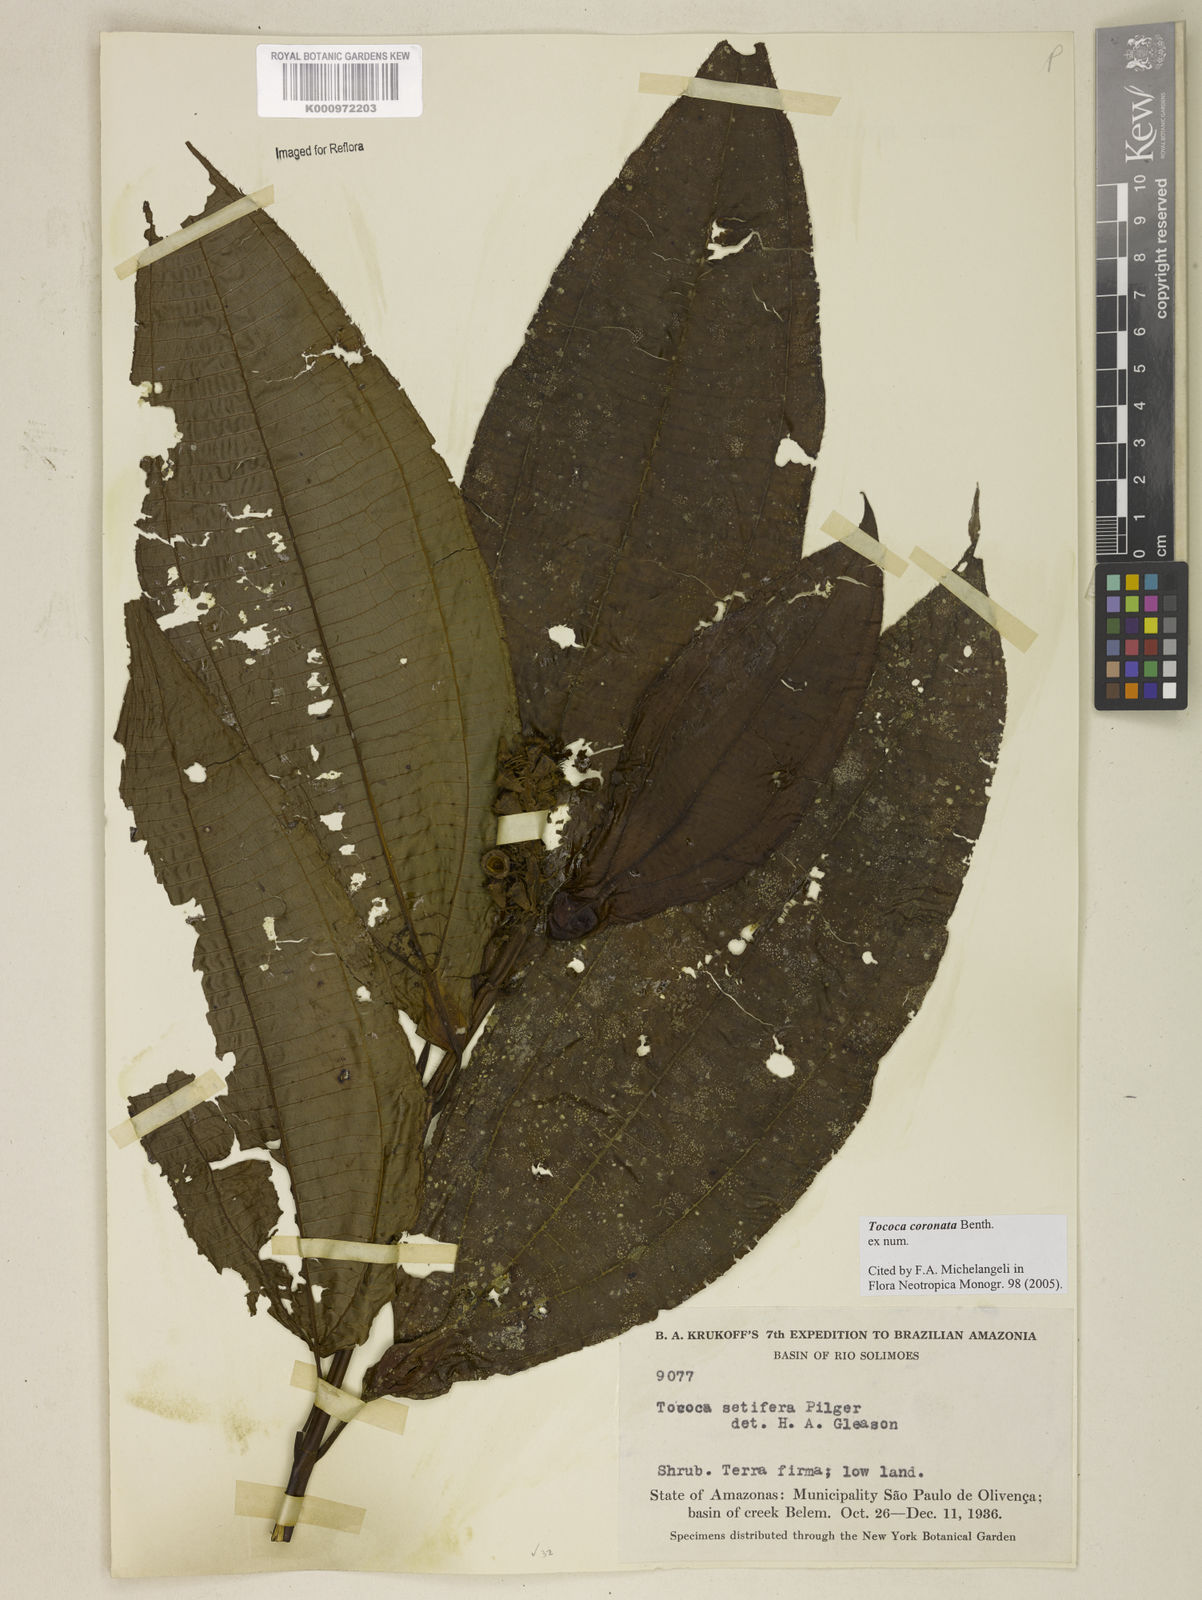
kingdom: Plantae
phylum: Tracheophyta
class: Magnoliopsida
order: Myrtales
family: Melastomataceae
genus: Miconia
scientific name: Miconia tococoronata
